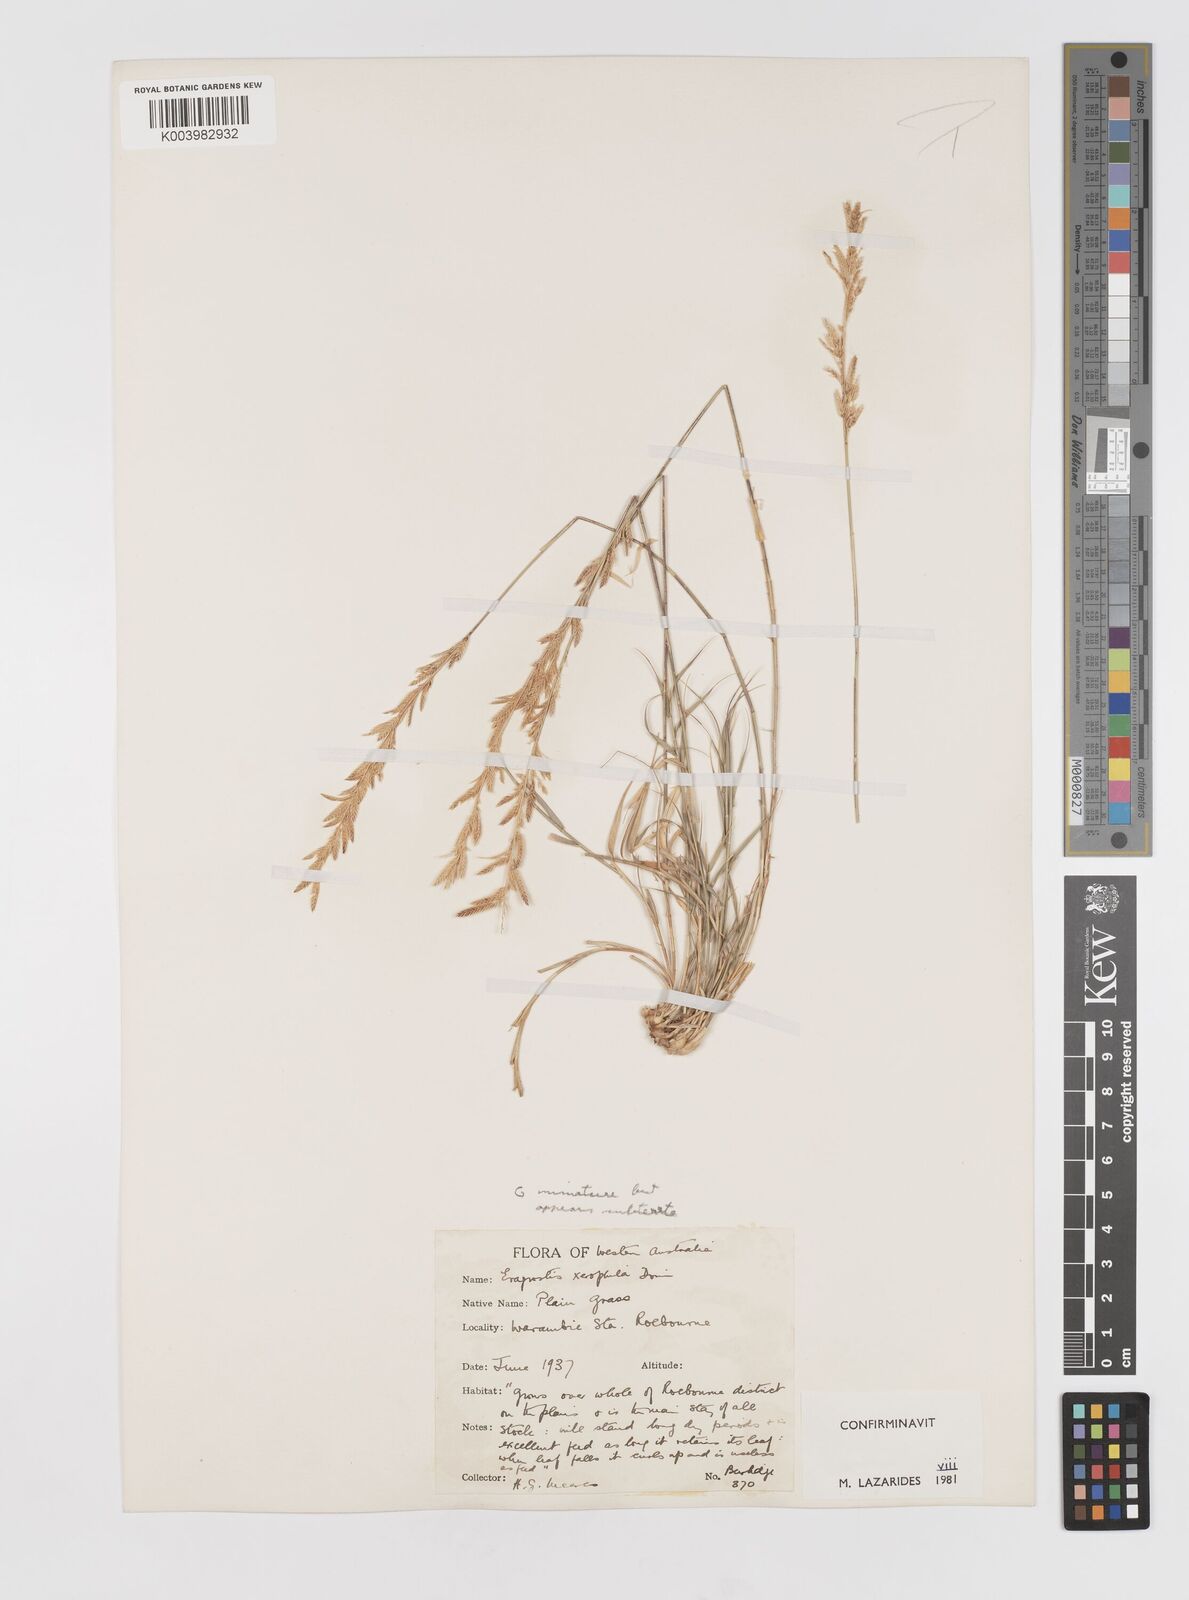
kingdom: Plantae
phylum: Tracheophyta
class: Liliopsida
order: Poales
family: Poaceae
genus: Eragrostis
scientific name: Eragrostis xerophila
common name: Wire wandarrie grass
